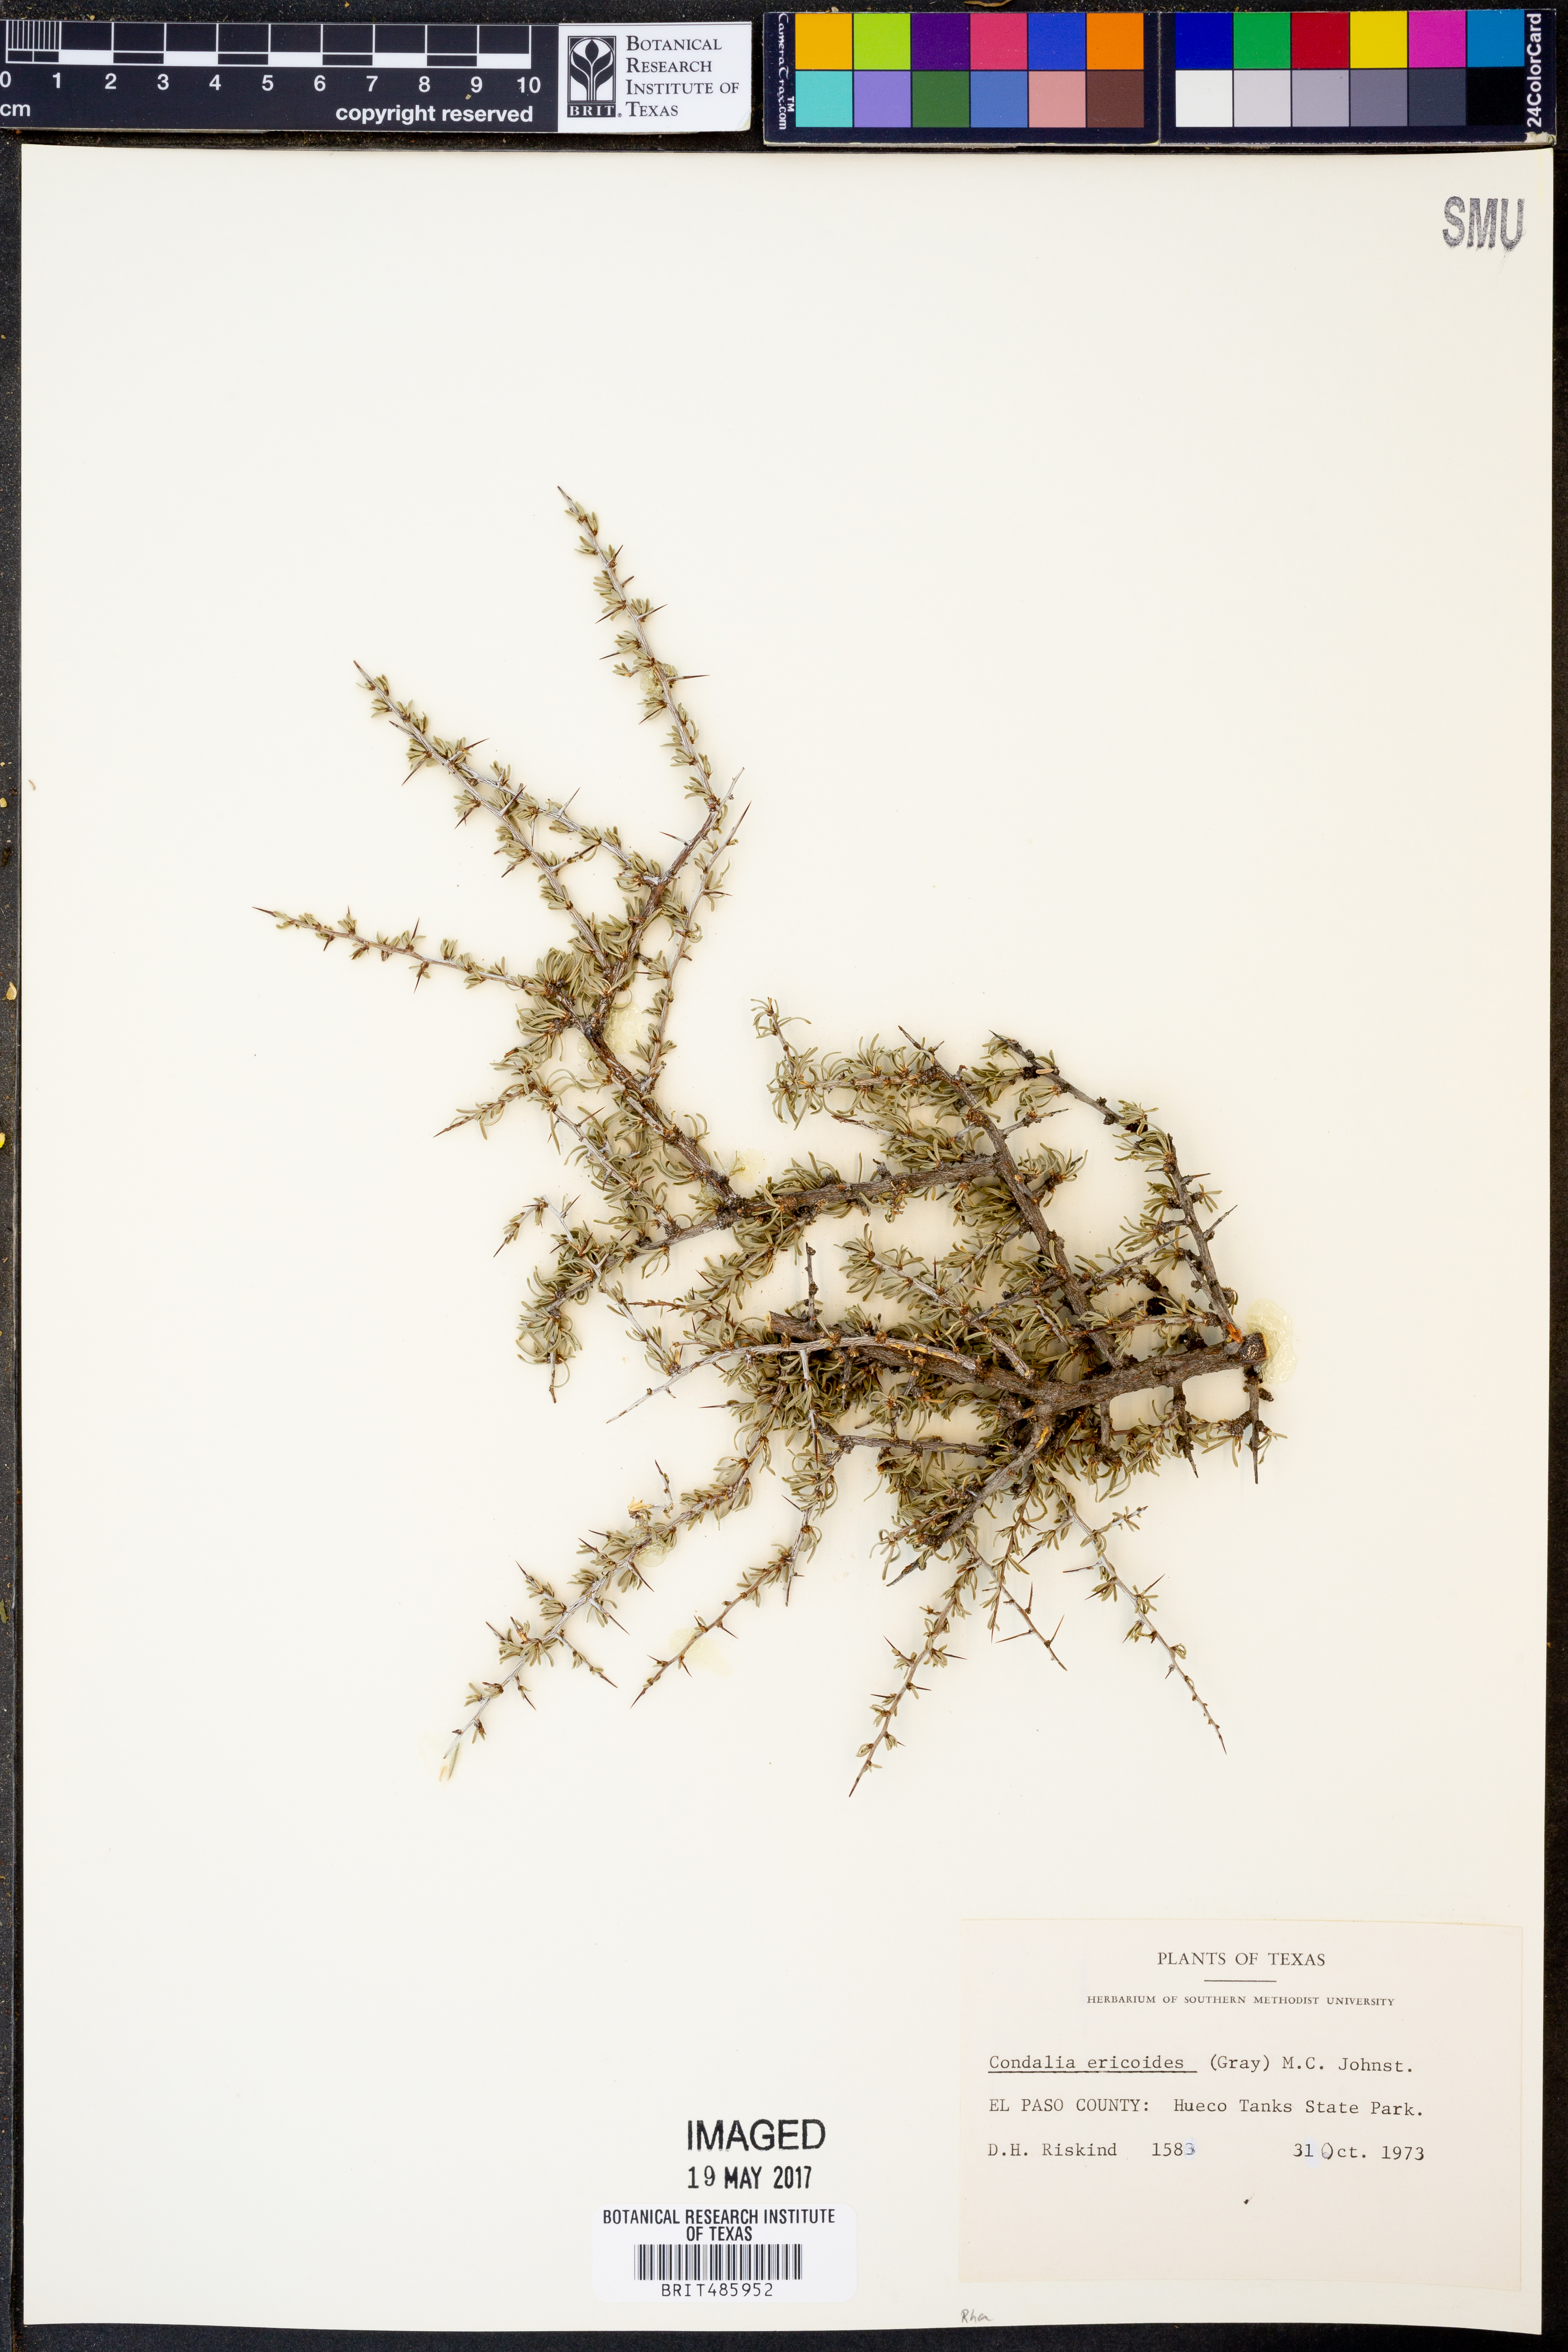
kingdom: Plantae
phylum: Tracheophyta
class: Magnoliopsida
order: Rosales
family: Rhamnaceae
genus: Condalia
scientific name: Condalia ericoides
